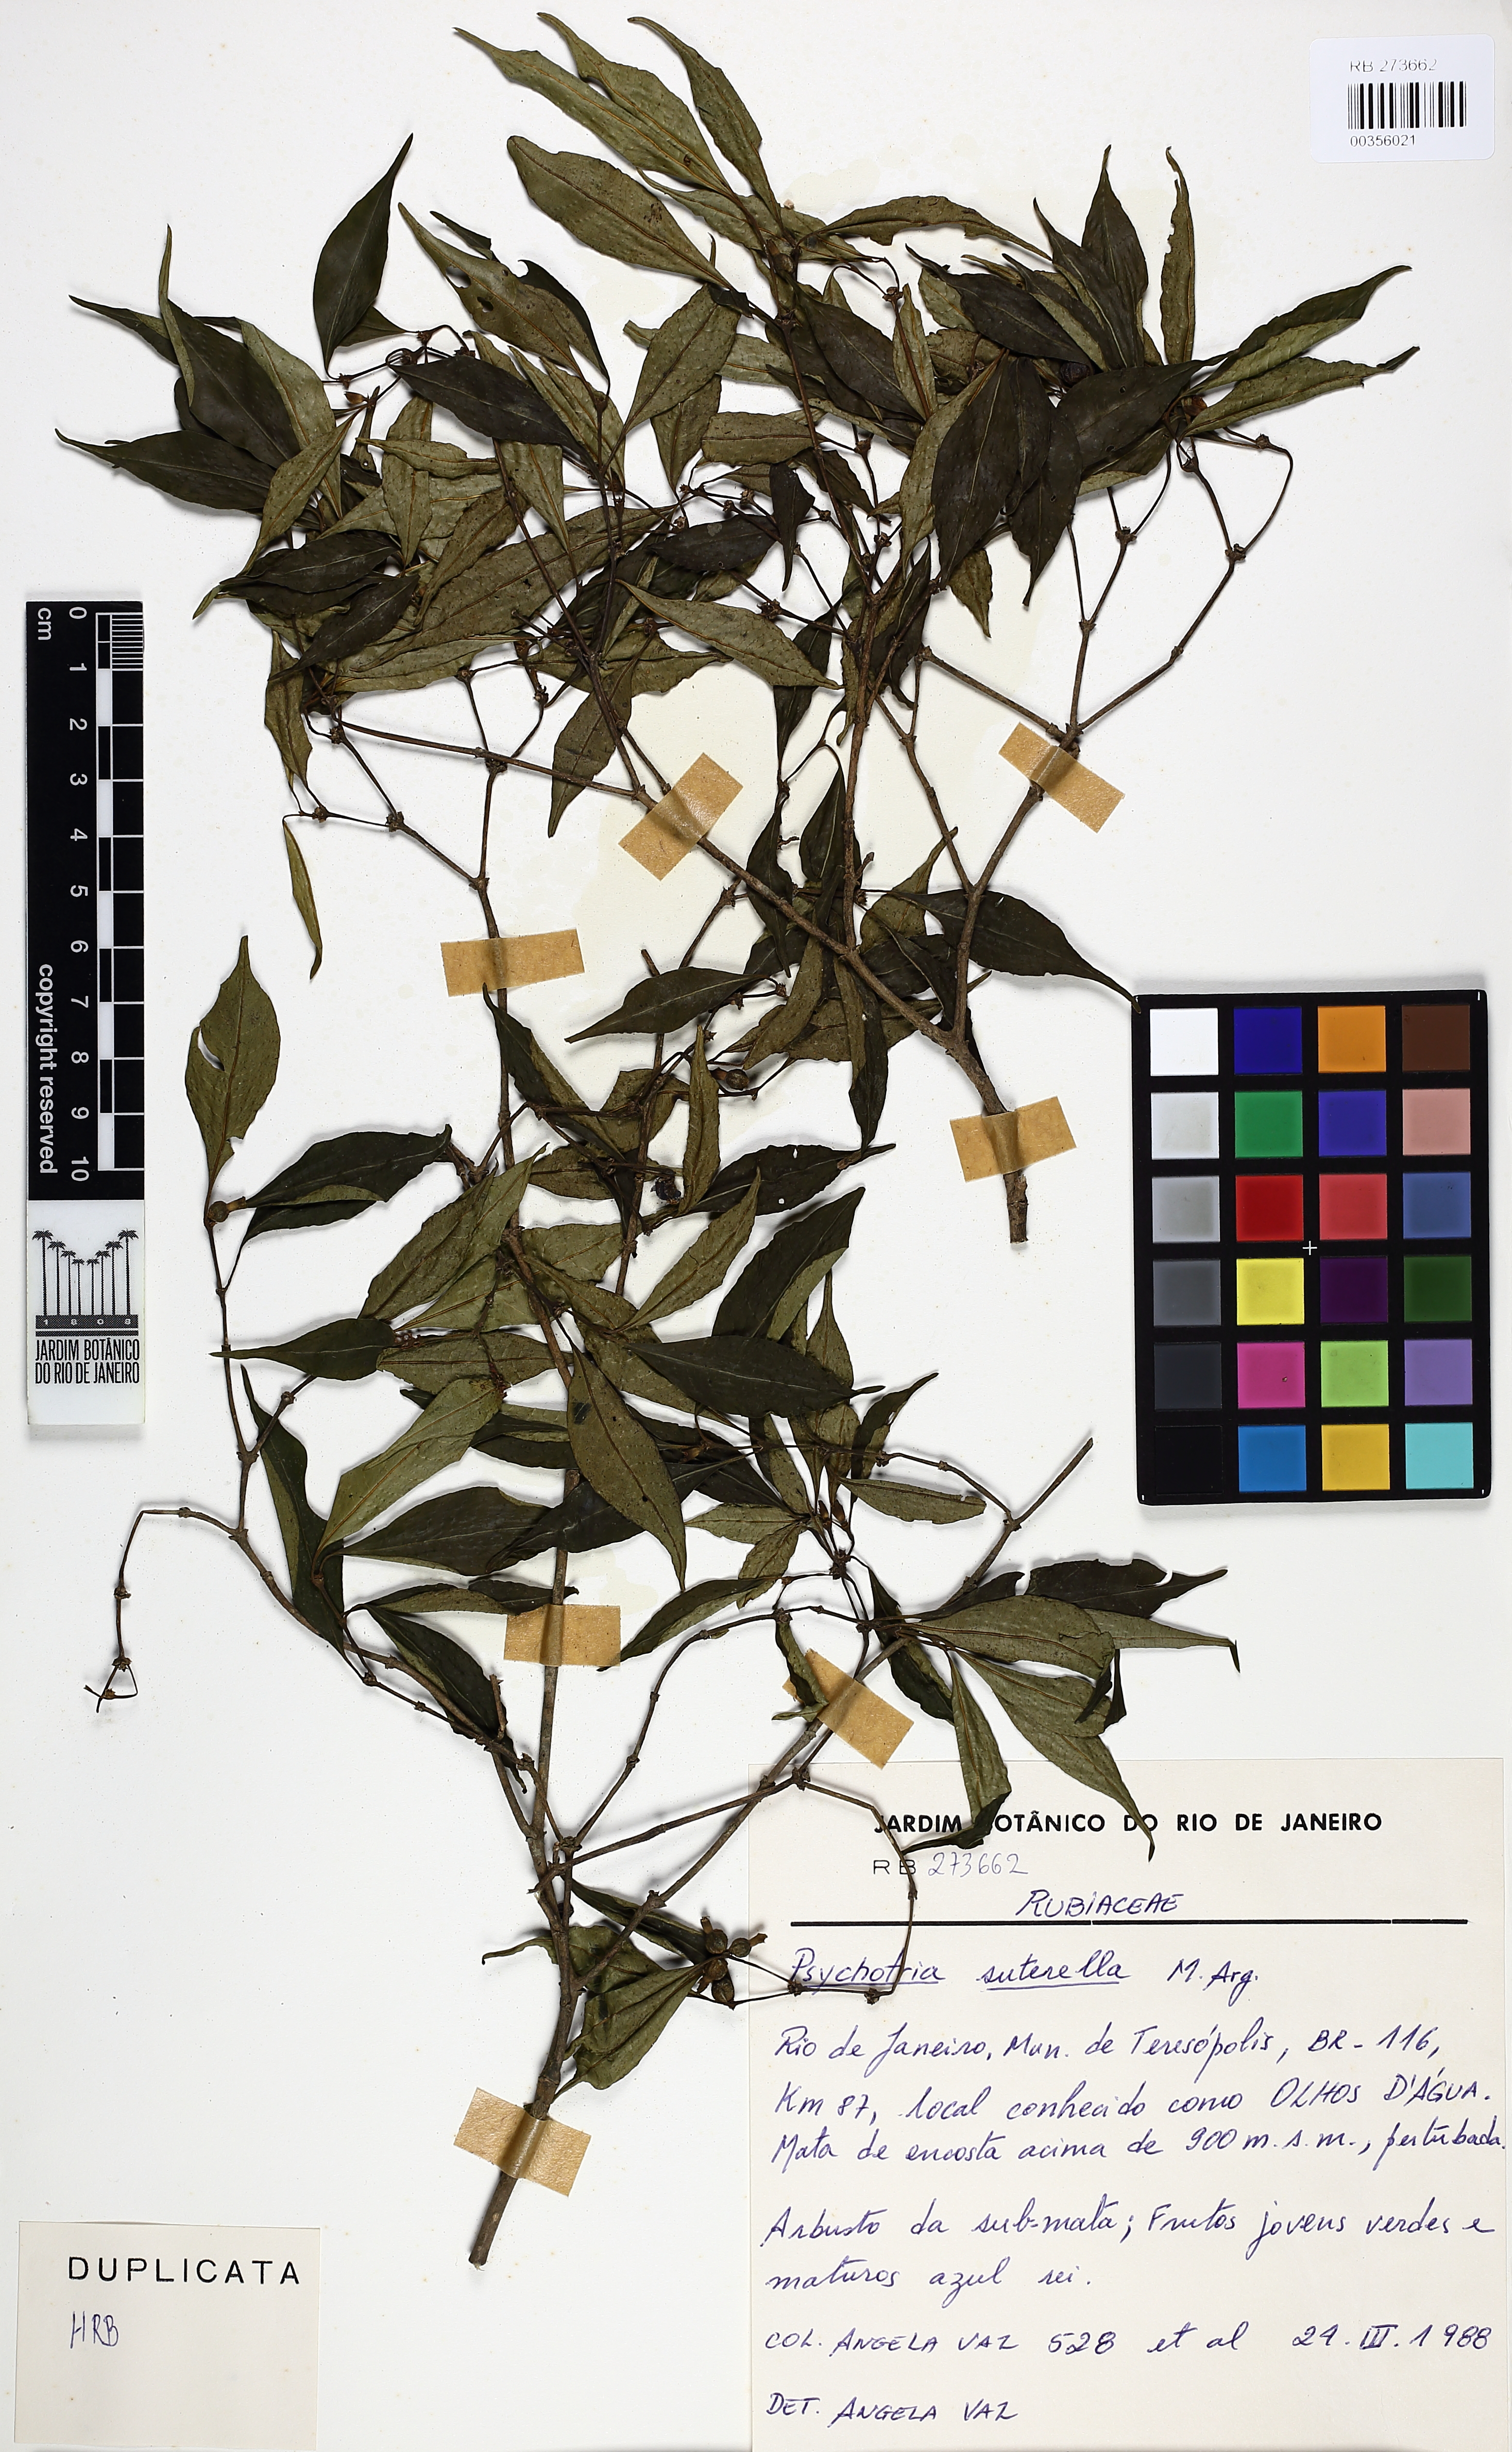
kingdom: Plantae
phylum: Tracheophyta
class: Magnoliopsida
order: Gentianales
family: Rubiaceae
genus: Psychotria
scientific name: Psychotria suterella
